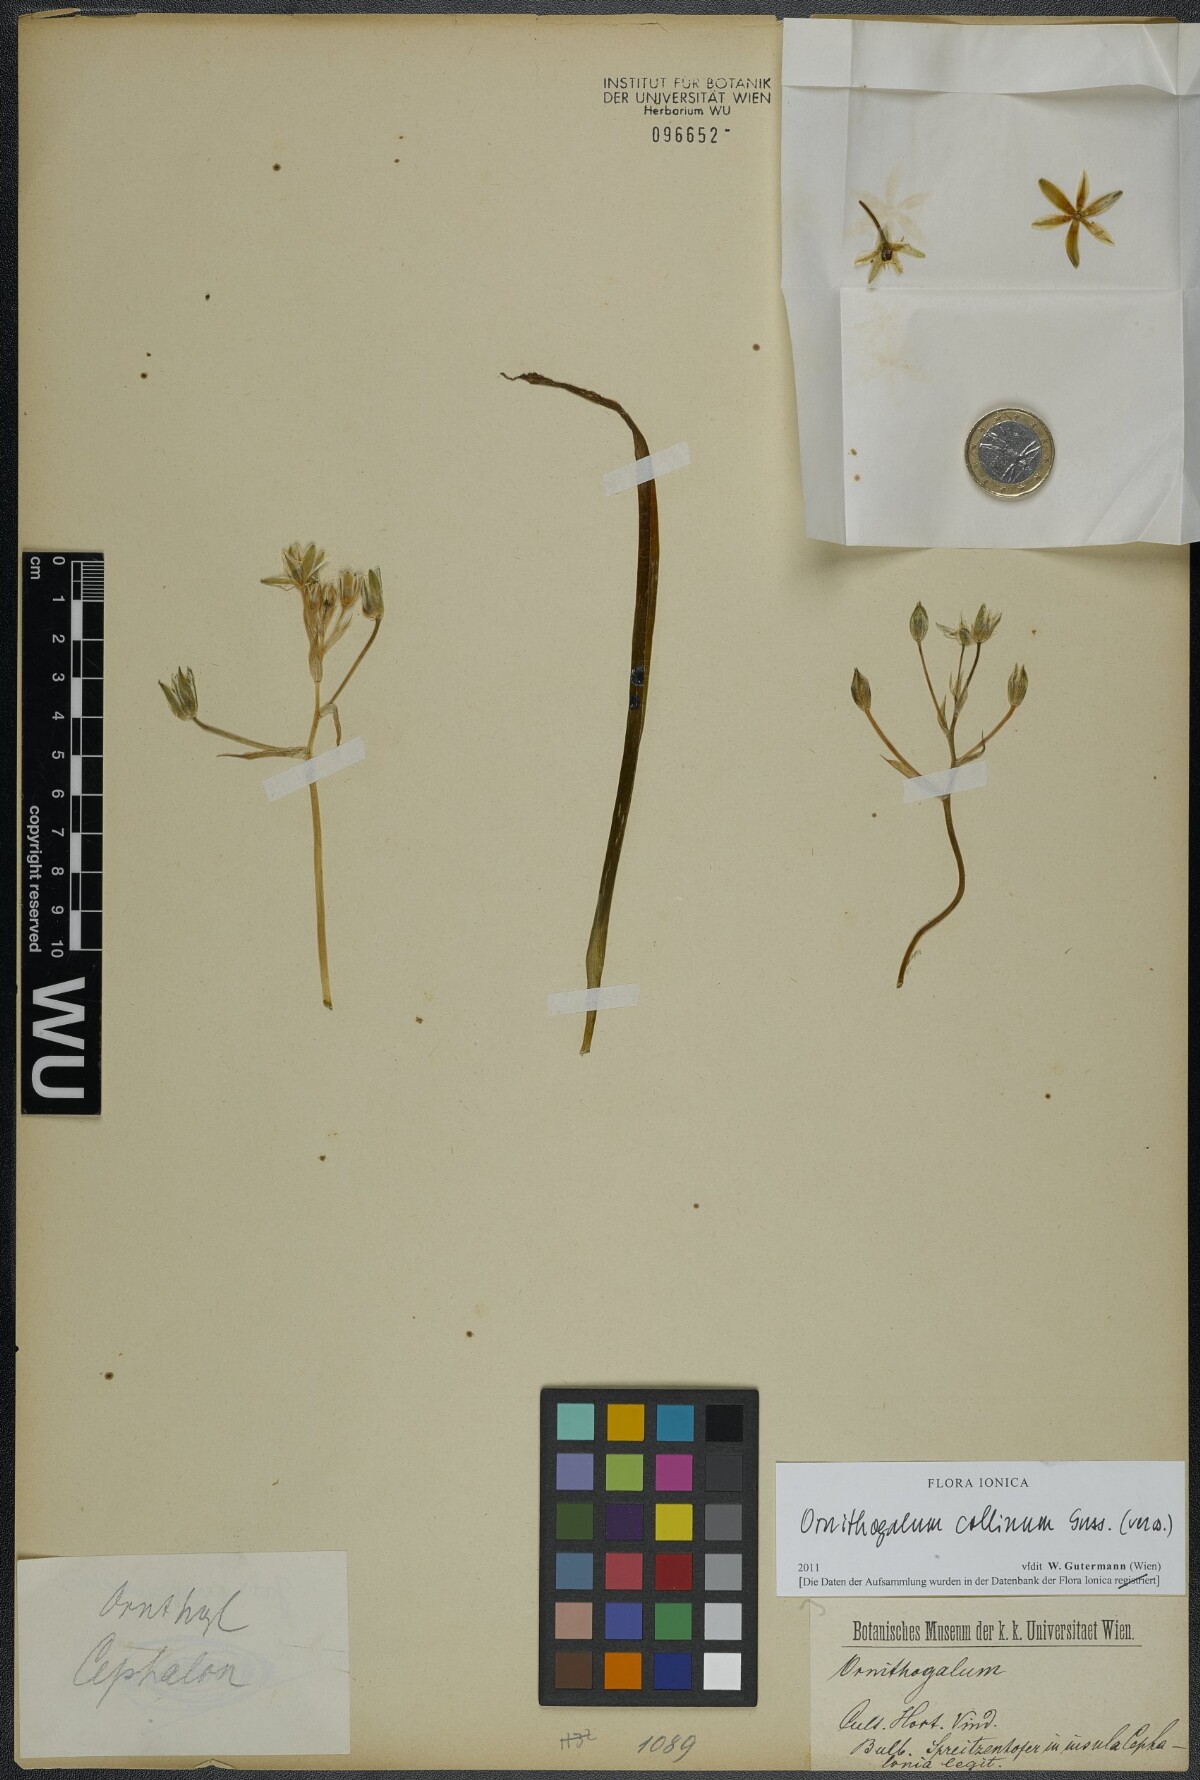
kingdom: Plantae
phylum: Tracheophyta
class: Liliopsida
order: Asparagales
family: Asparagaceae
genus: Ornithogalum
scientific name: Ornithogalum collinum
